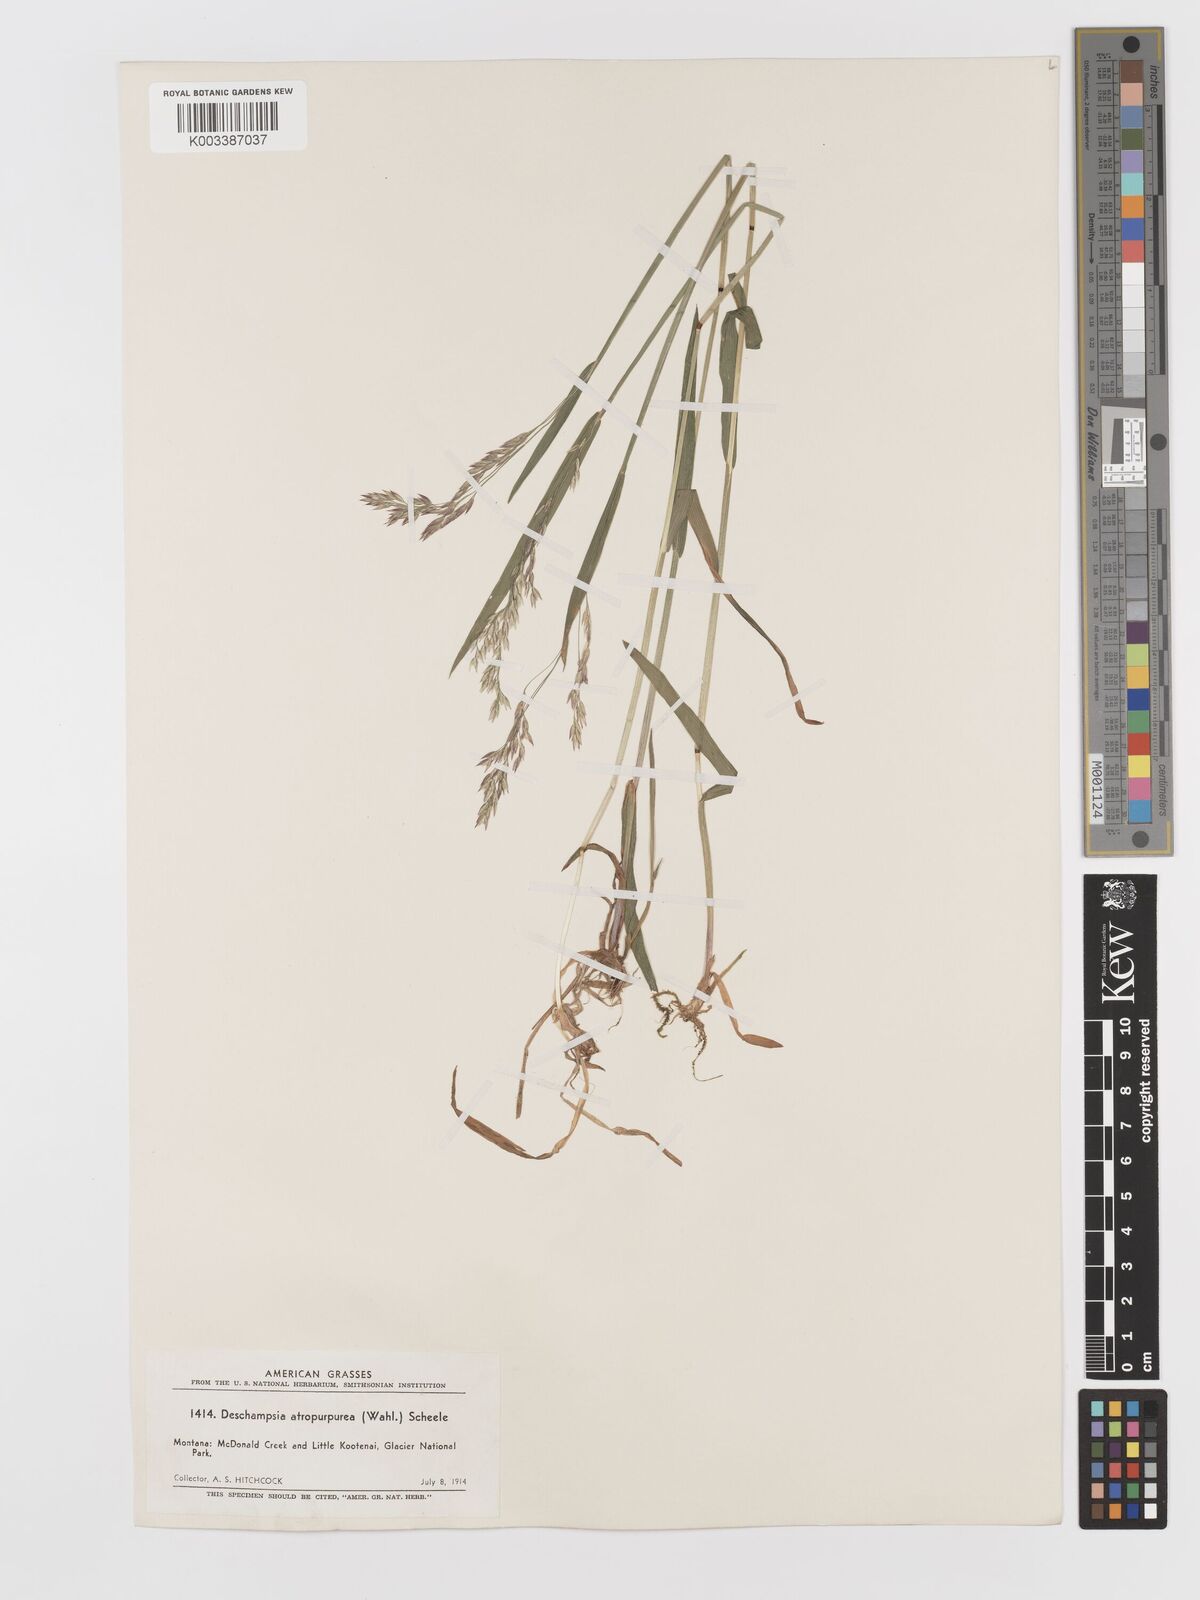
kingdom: Plantae
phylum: Tracheophyta
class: Liliopsida
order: Poales
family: Poaceae
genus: Vahlodea
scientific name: Vahlodea atropurpurea
